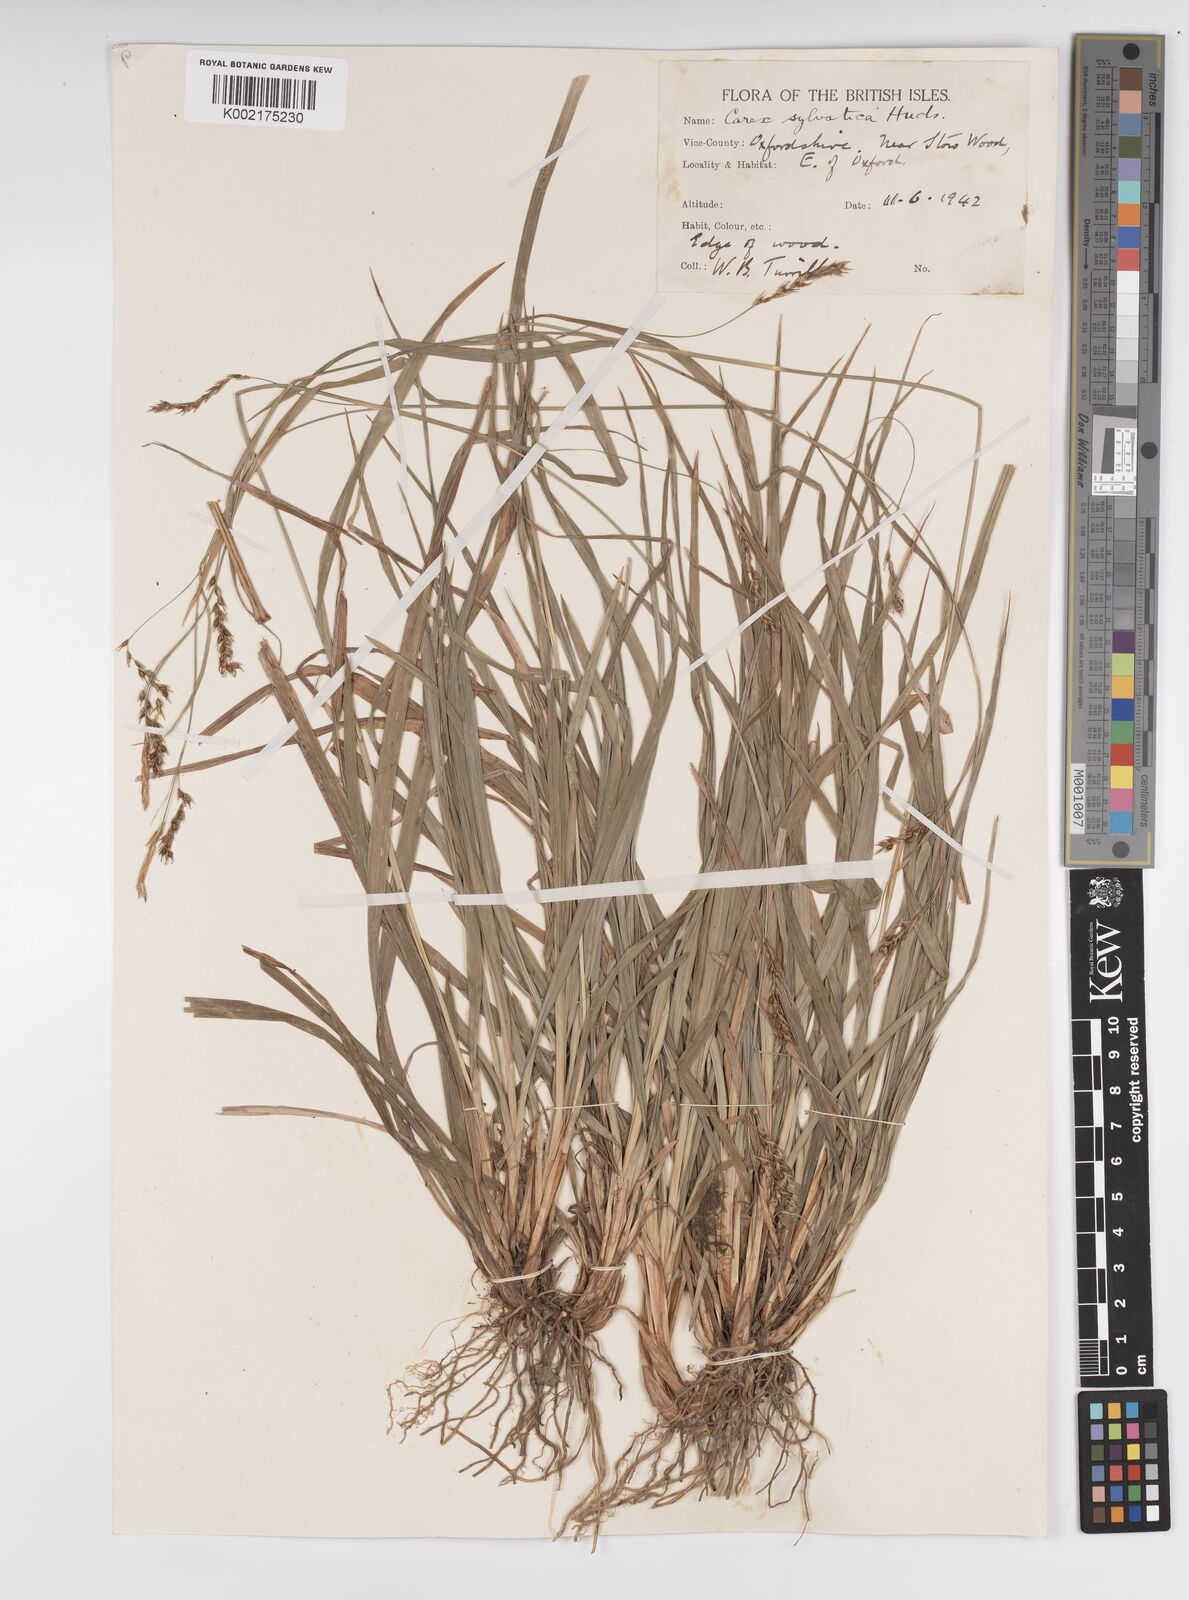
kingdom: Plantae
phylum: Tracheophyta
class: Liliopsida
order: Poales
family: Cyperaceae
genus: Carex
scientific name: Carex sylvatica
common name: Wood-sedge
